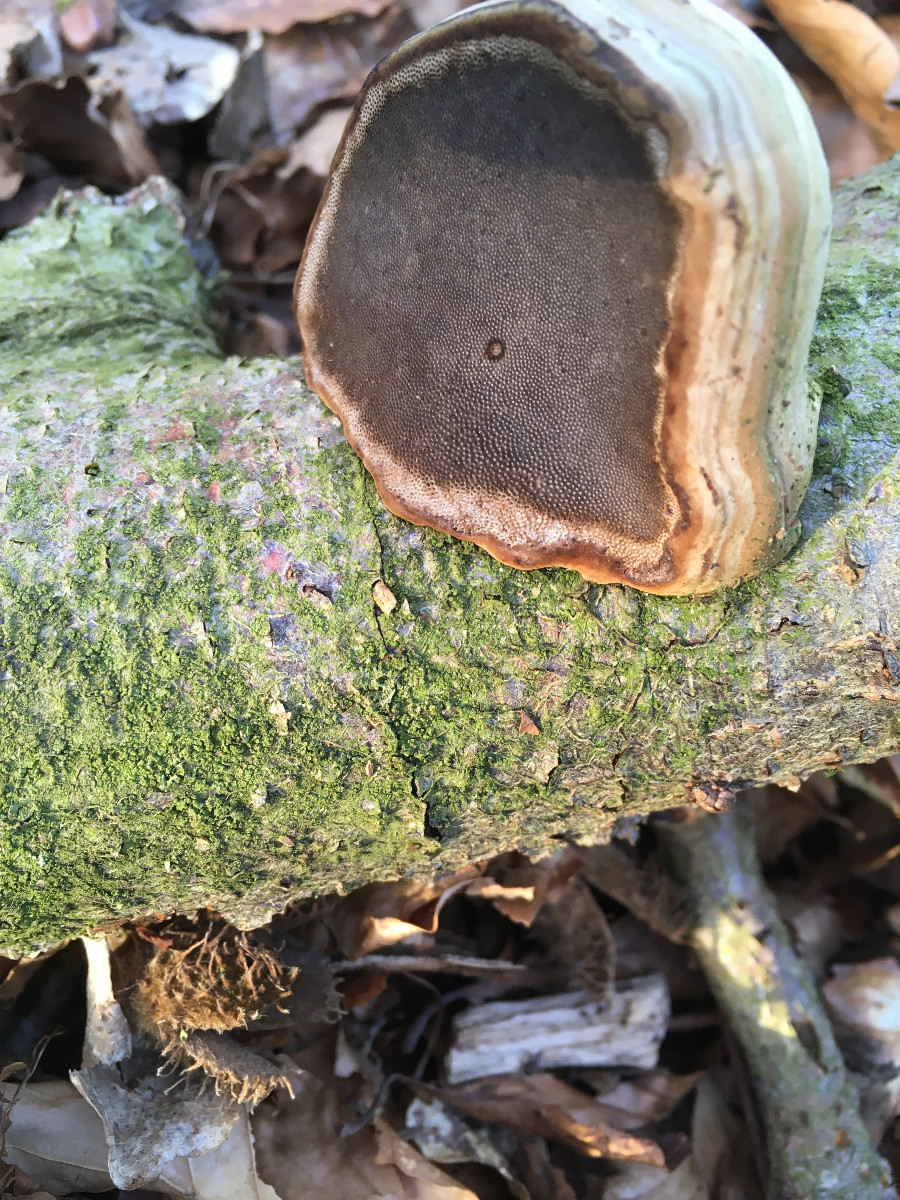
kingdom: Fungi
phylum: Basidiomycota
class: Agaricomycetes
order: Polyporales
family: Polyporaceae
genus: Fomes
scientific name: Fomes fomentarius
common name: tøndersvamp
